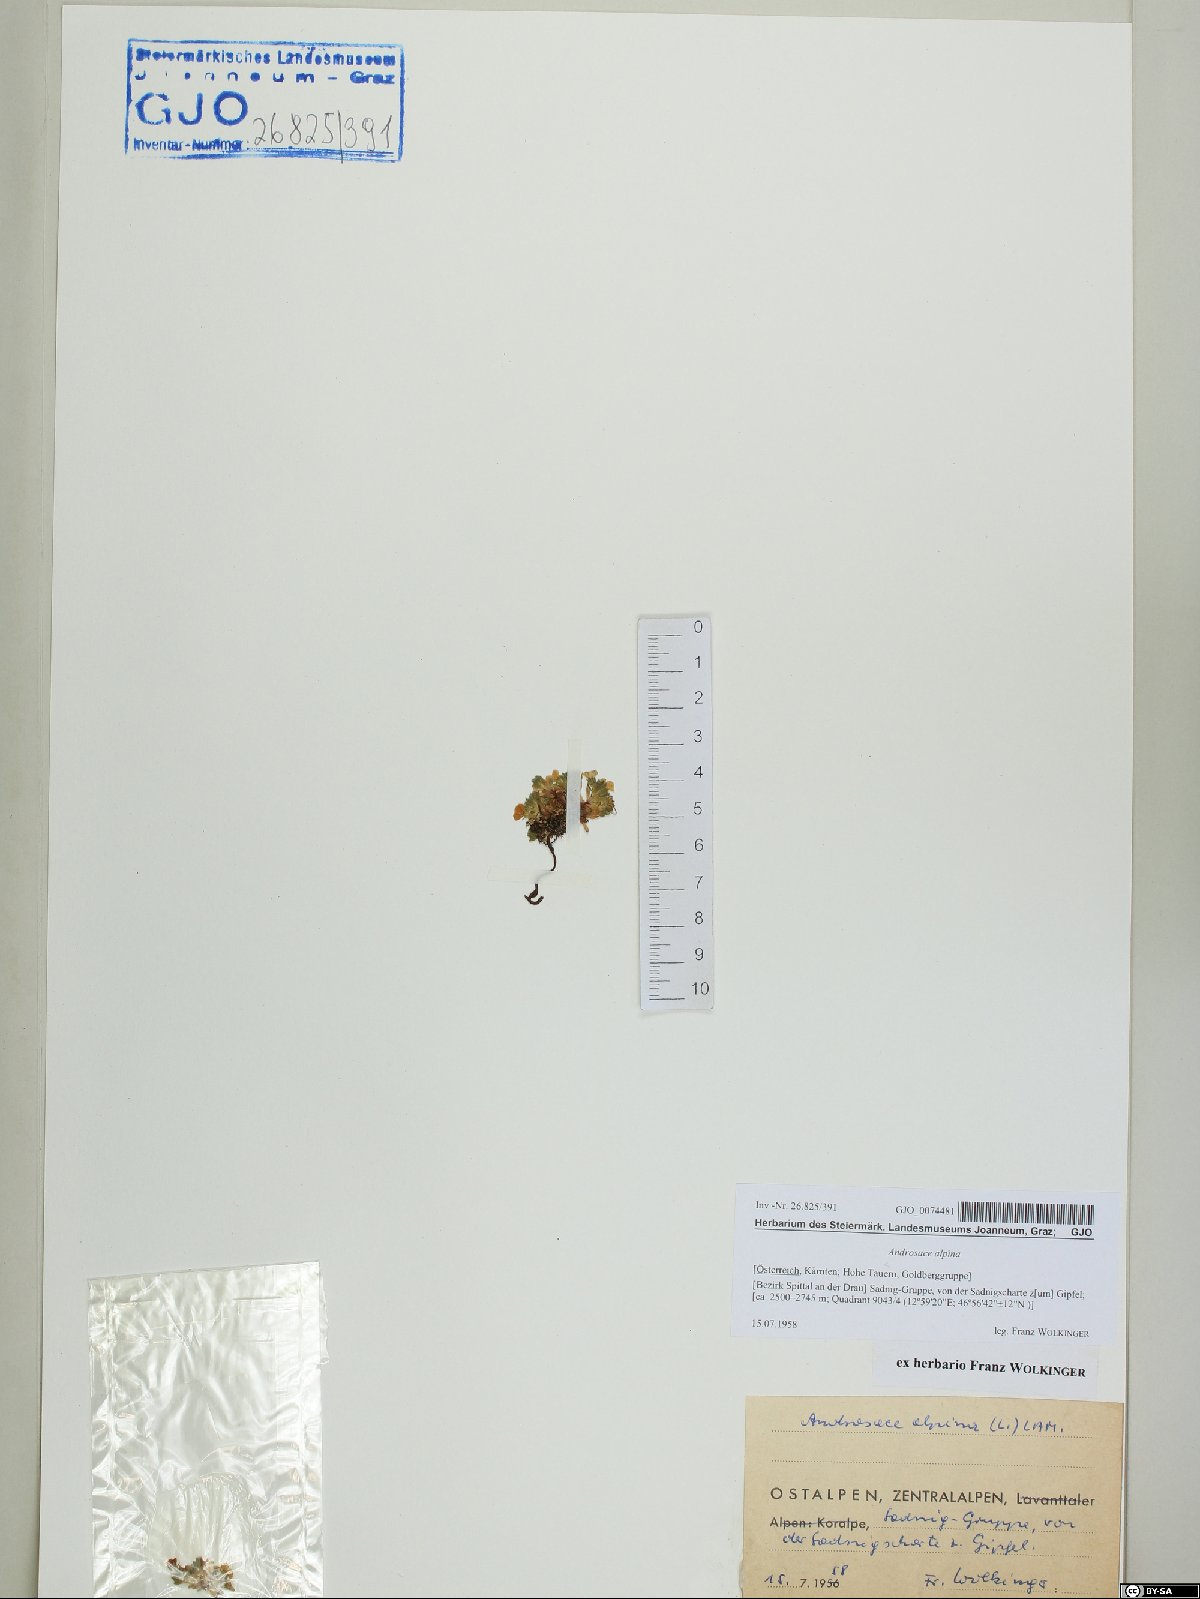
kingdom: Plantae
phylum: Tracheophyta
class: Magnoliopsida
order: Ericales
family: Primulaceae
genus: Androsace
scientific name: Androsace alpina
